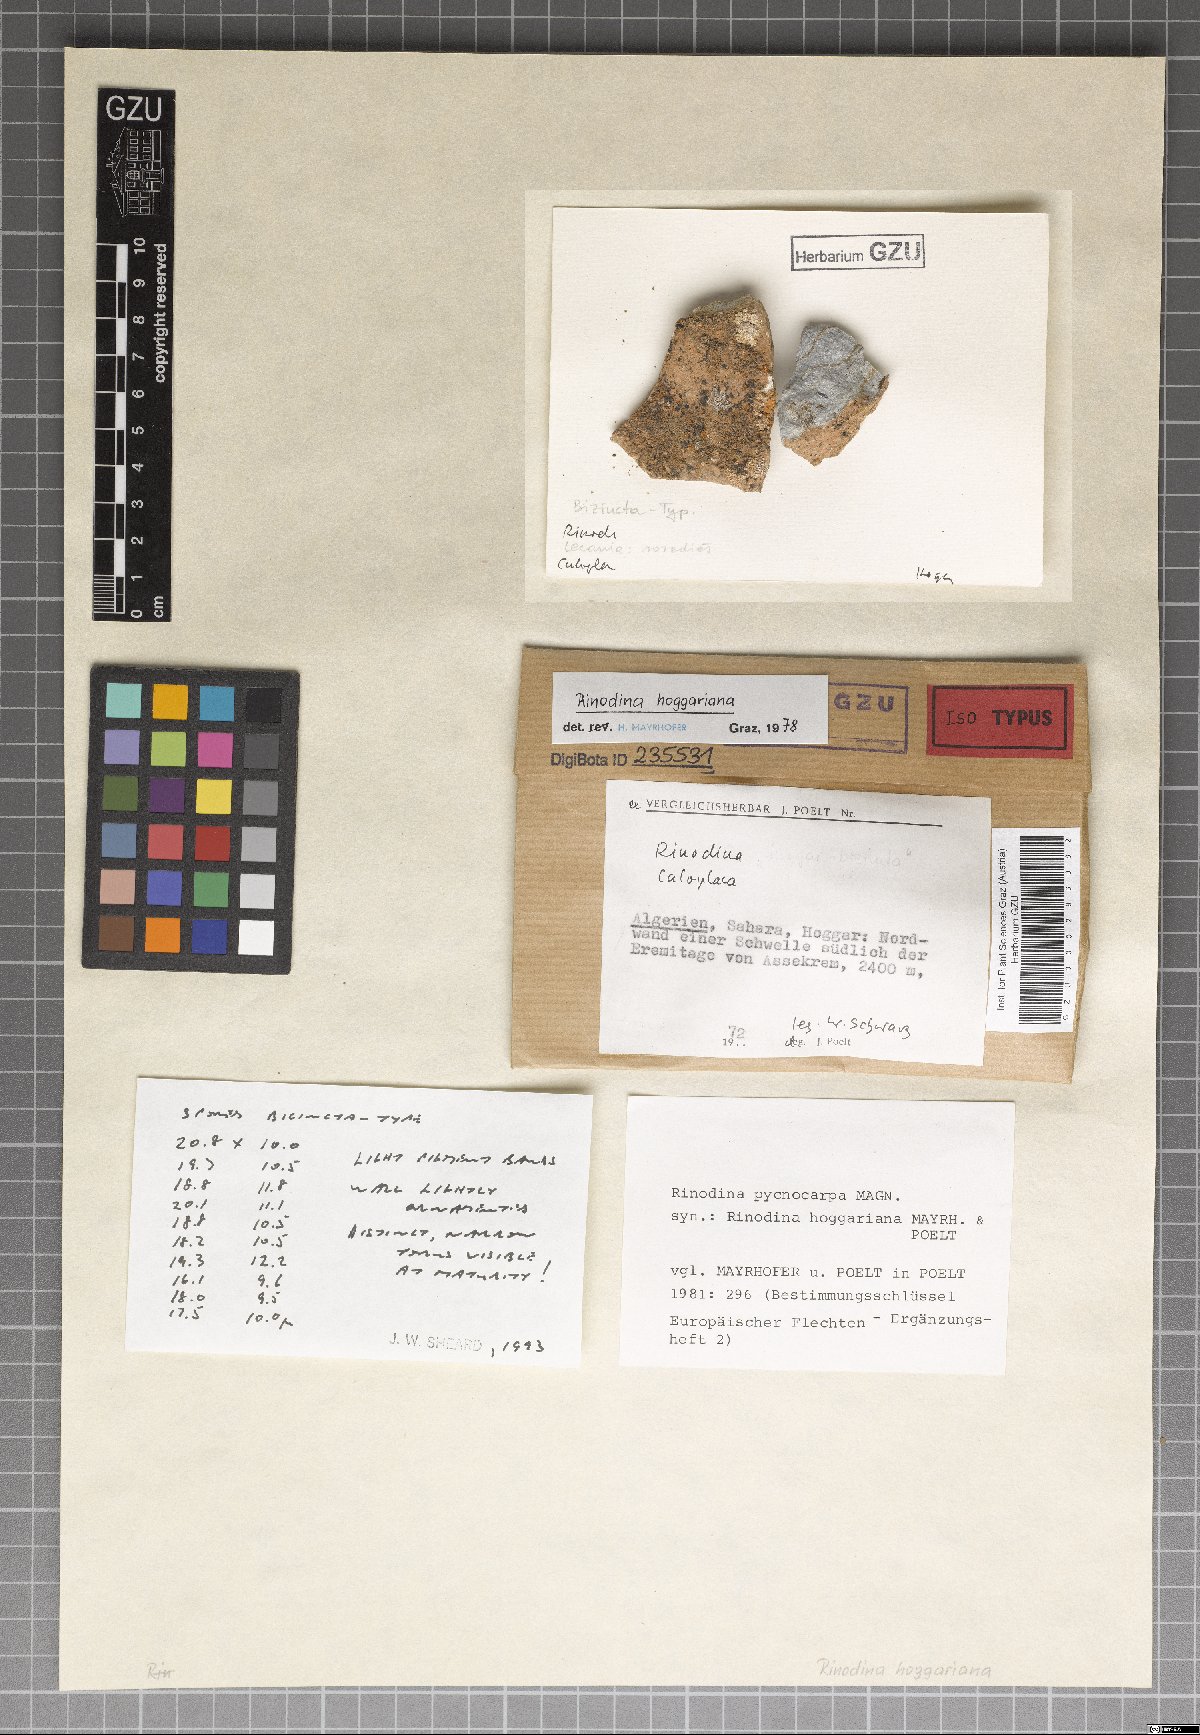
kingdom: Fungi
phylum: Ascomycota
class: Lecanoromycetes
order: Caliciales
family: Physciaceae
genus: Rinodina
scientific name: Rinodina
